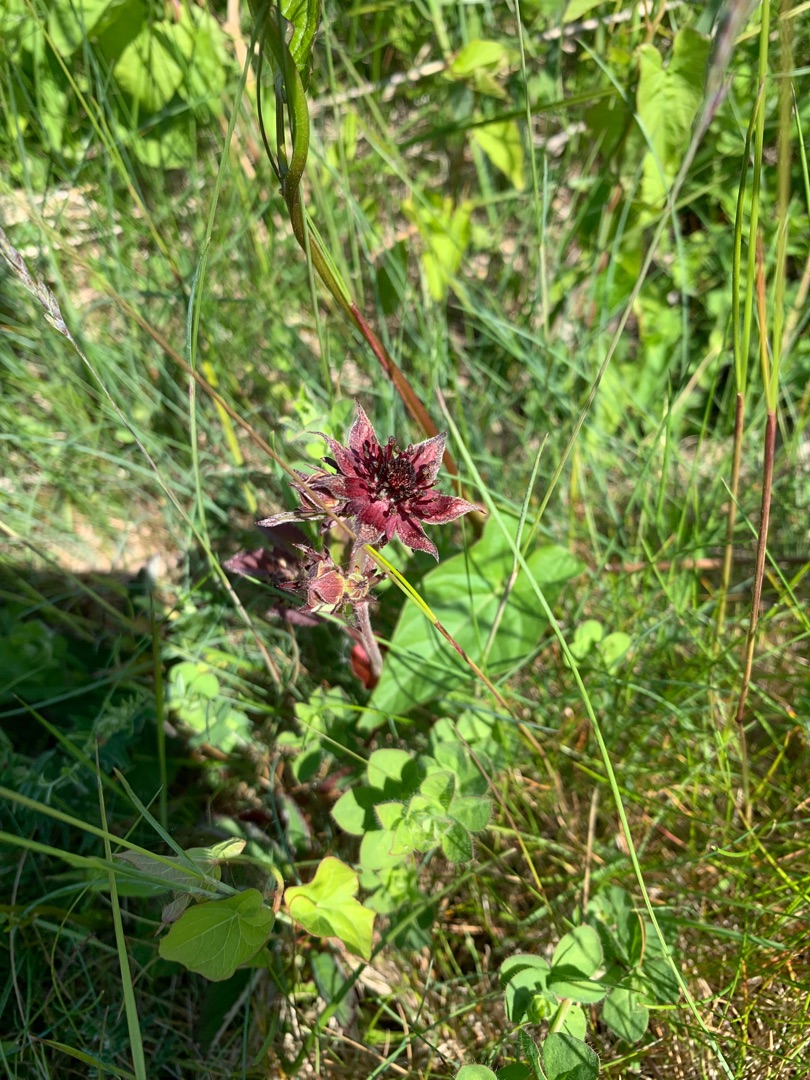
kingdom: Plantae
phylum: Tracheophyta
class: Magnoliopsida
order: Rosales
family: Rosaceae
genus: Comarum
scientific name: Comarum palustre
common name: Kragefod
